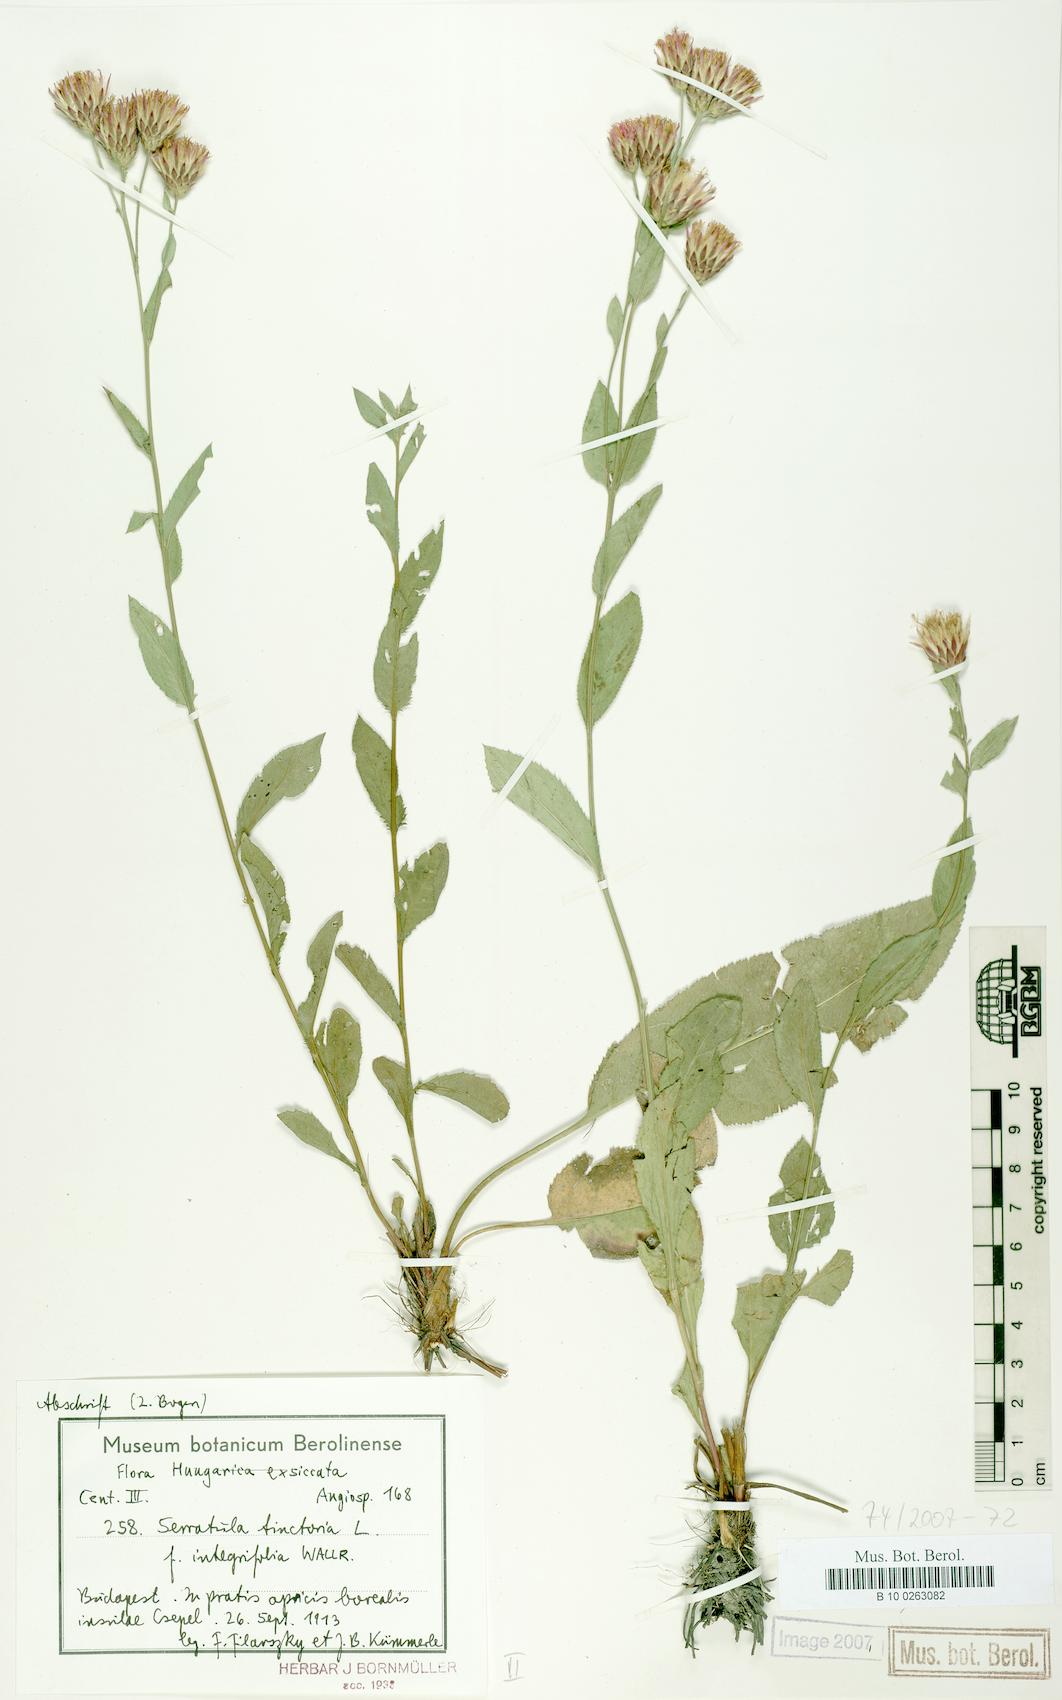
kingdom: Plantae
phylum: Tracheophyta
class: Magnoliopsida
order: Asterales
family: Asteraceae
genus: Serratula
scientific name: Serratula tinctoria
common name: Saw-wort
